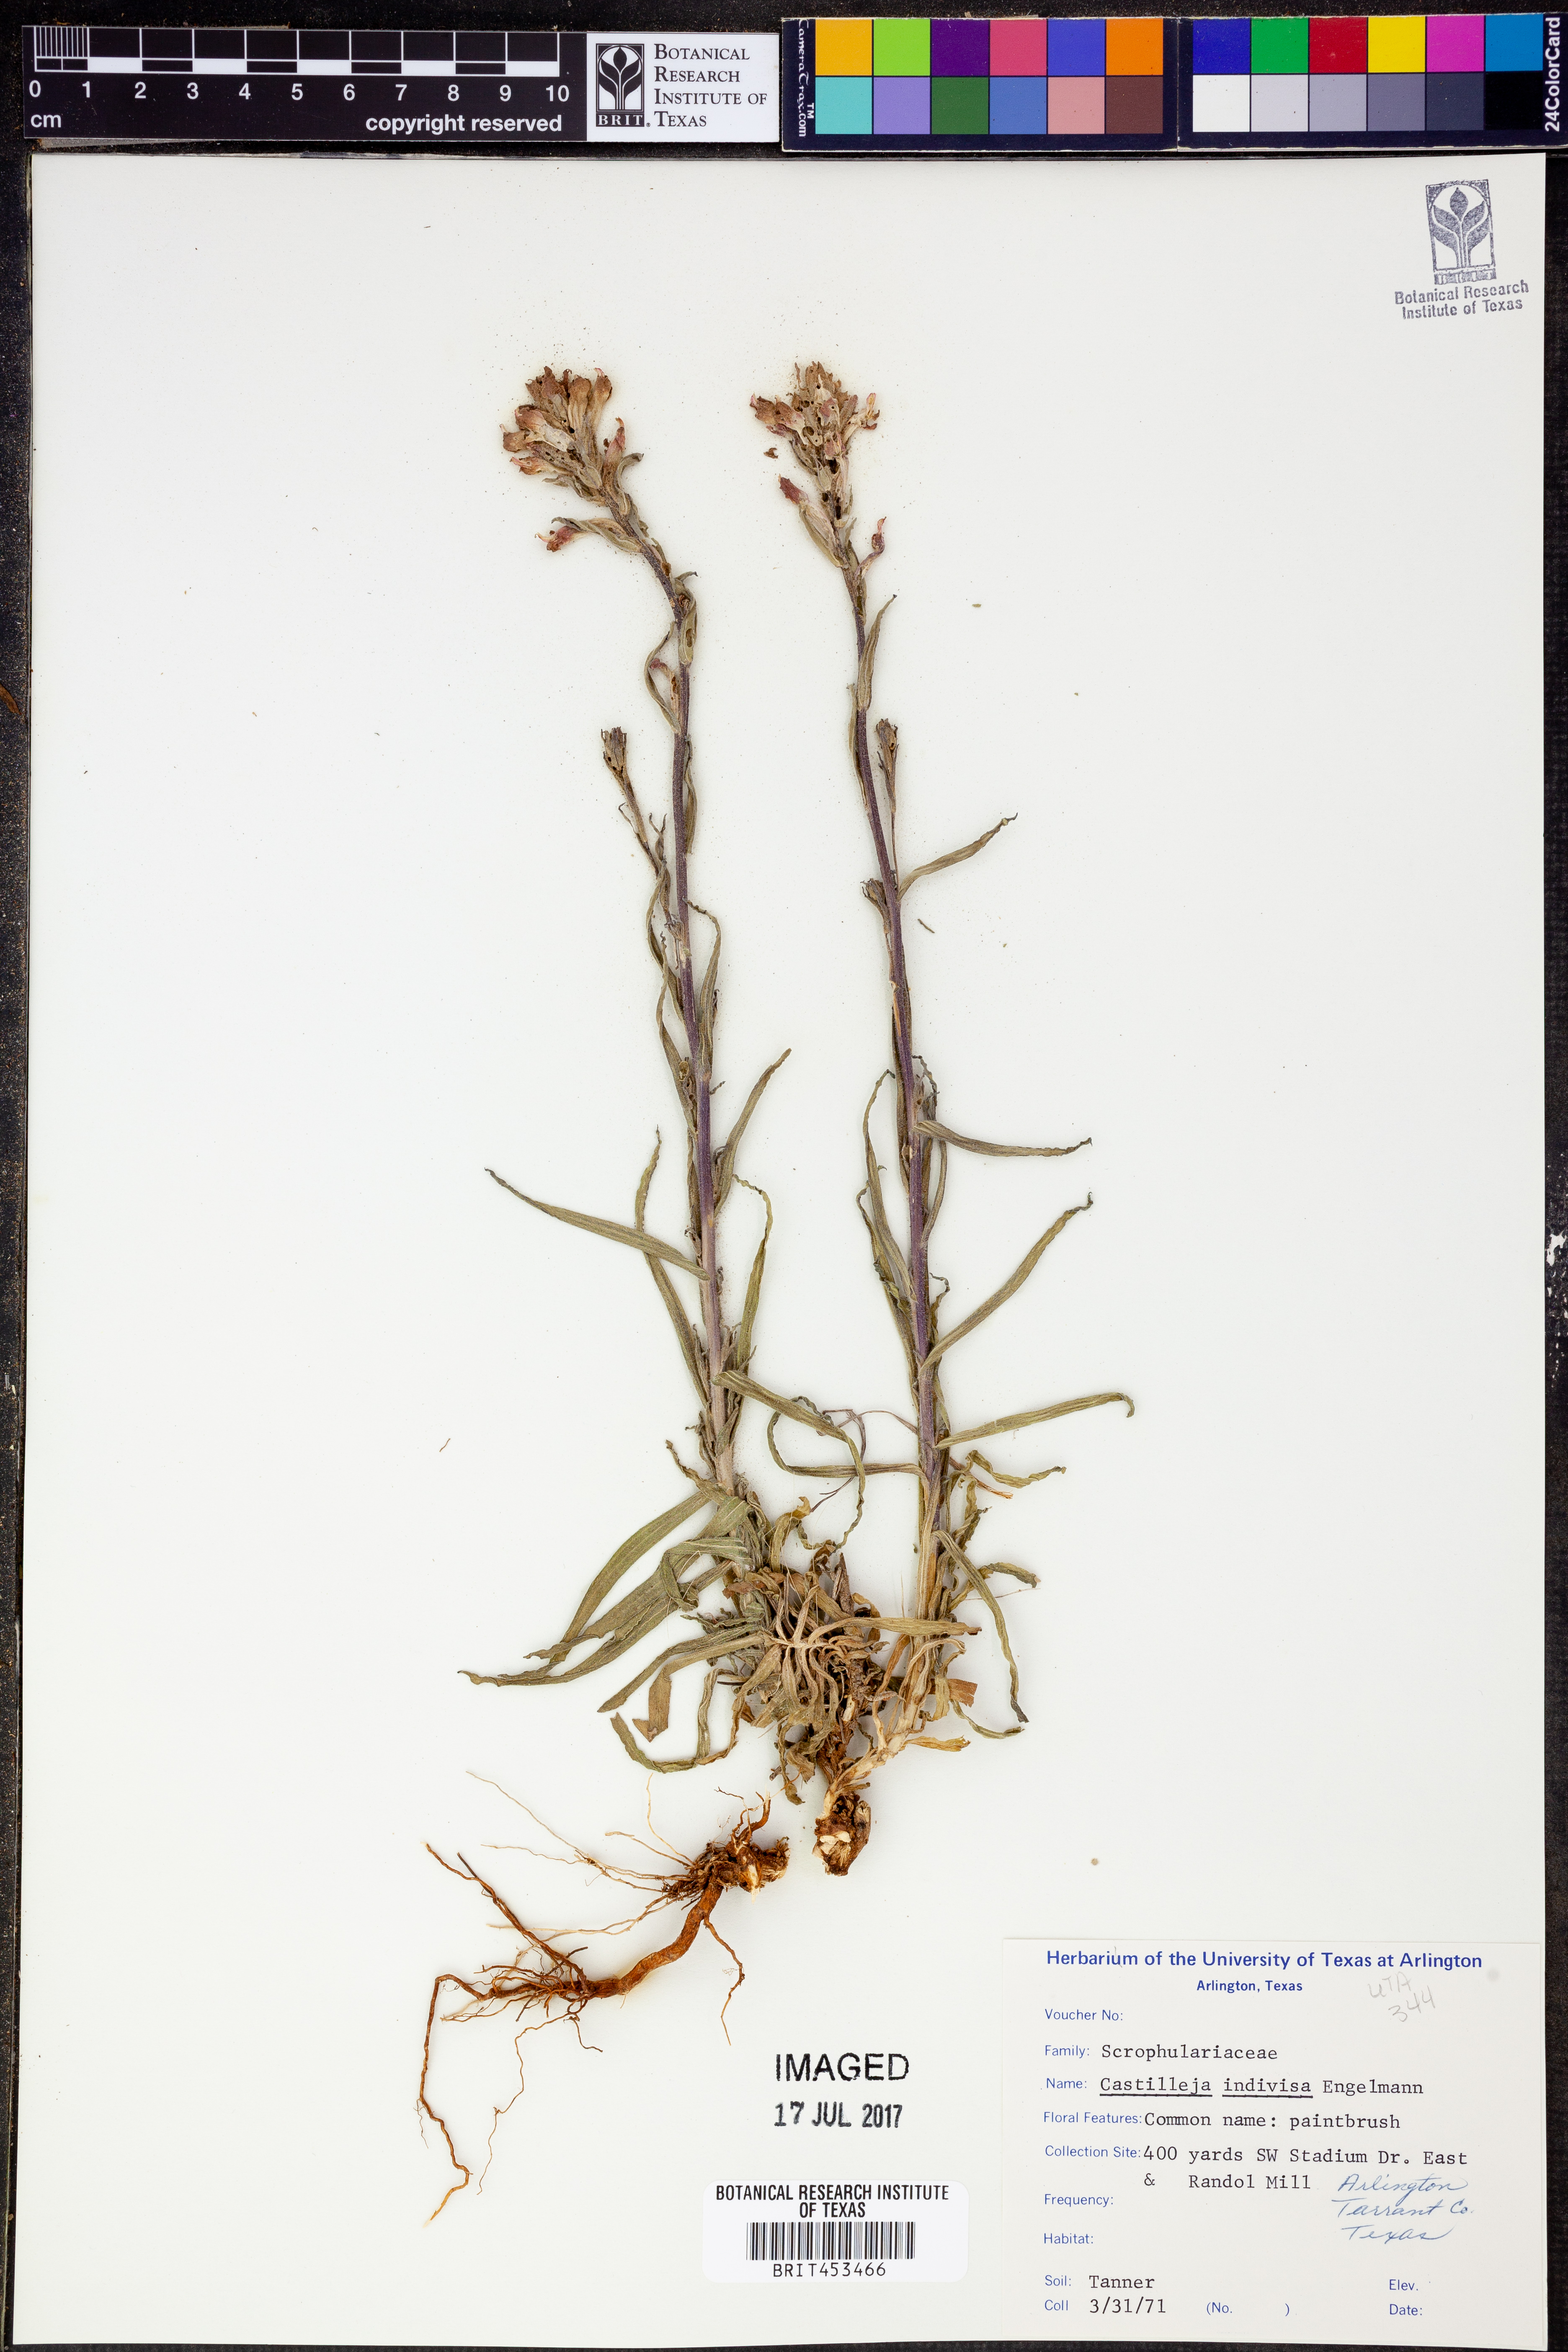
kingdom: Plantae
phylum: Tracheophyta
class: Magnoliopsida
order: Lamiales
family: Orobanchaceae
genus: Castilleja
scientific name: Castilleja indivisa
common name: Texas paintbrush
